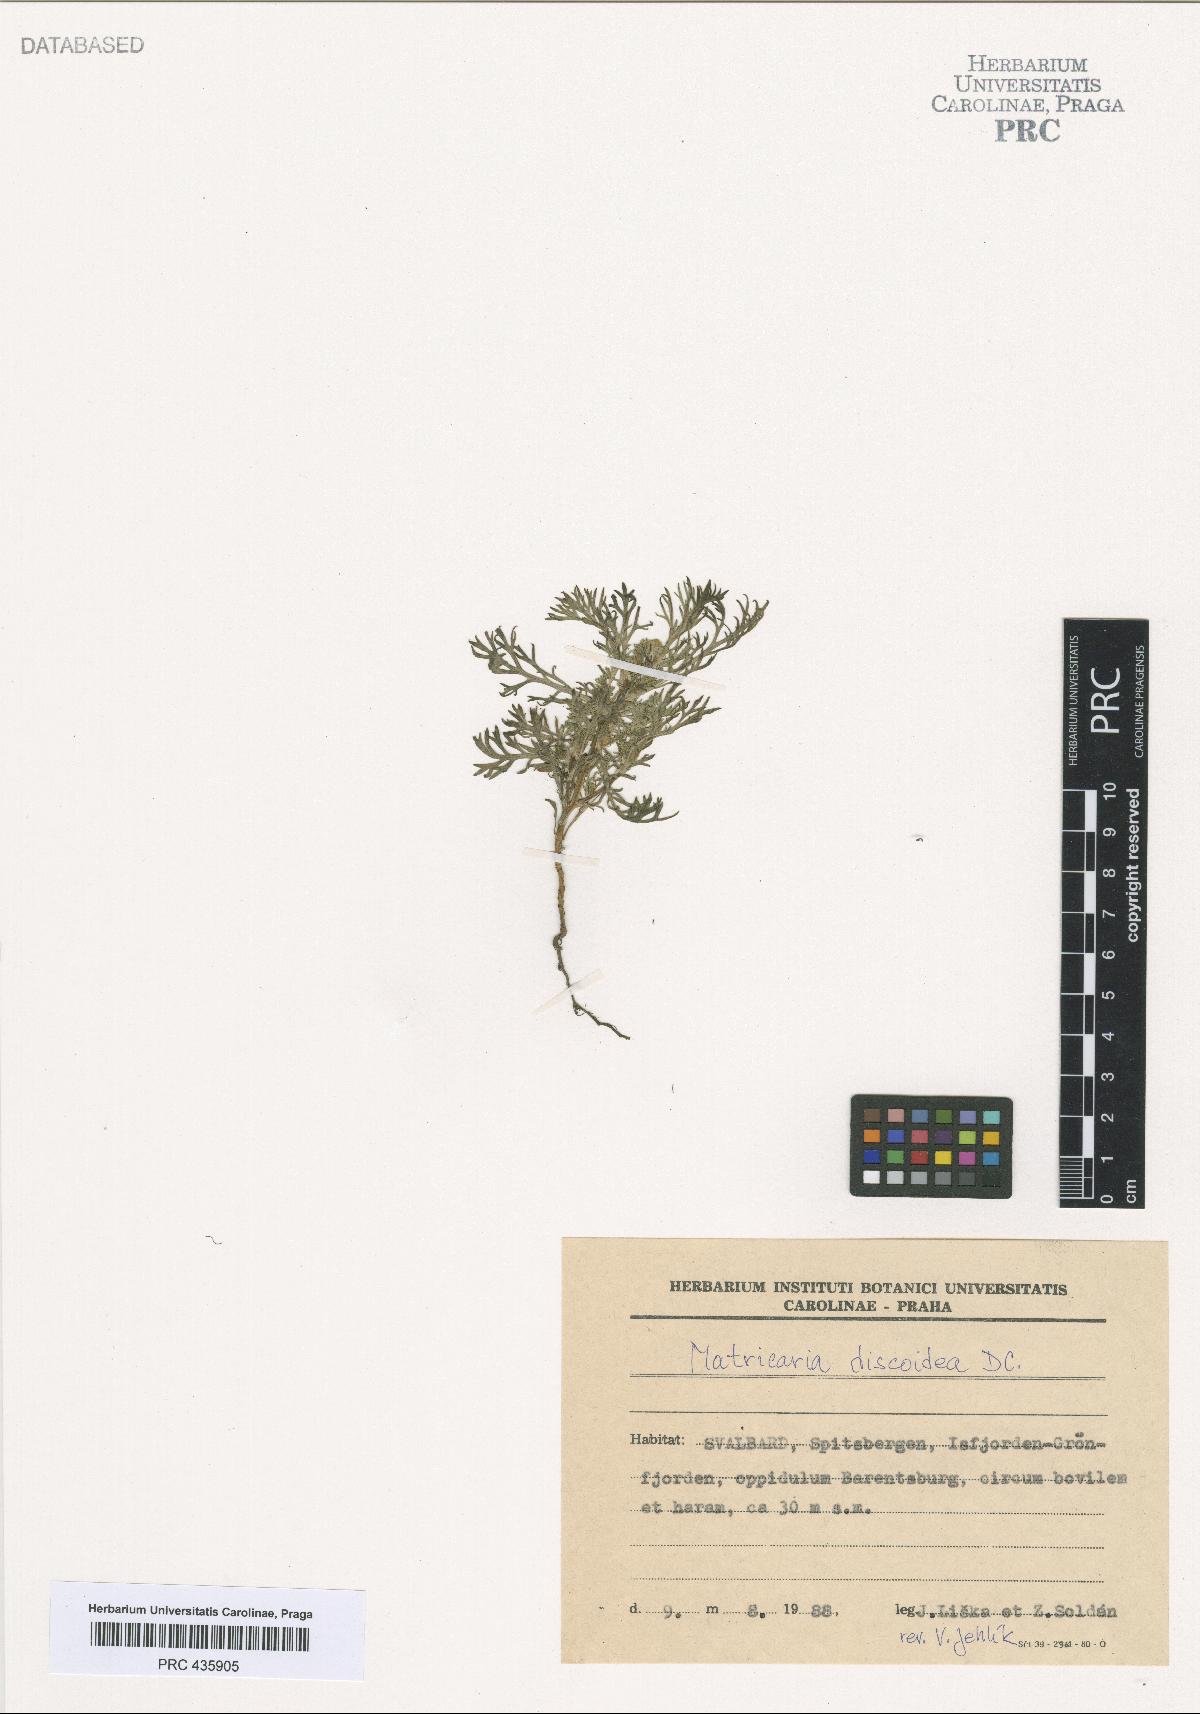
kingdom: Plantae
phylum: Tracheophyta
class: Magnoliopsida
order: Asterales
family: Asteraceae
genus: Matricaria
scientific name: Matricaria discoidea
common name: Disc mayweed
